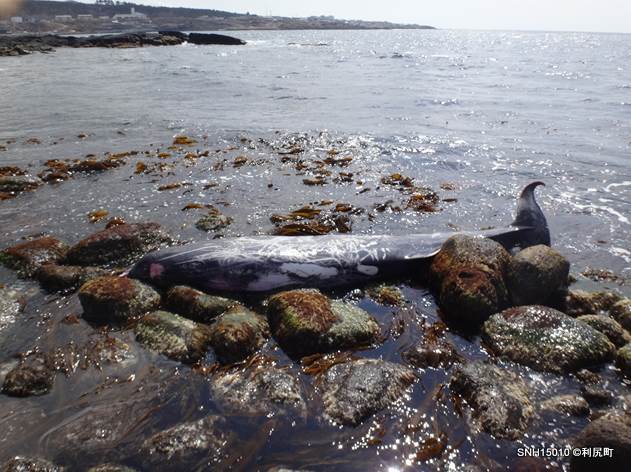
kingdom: Animalia
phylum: Chordata
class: Mammalia
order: Cetacea
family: Hyperoodontidae
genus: Mesoplodon
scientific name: Mesoplodon stejnegeri
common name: Stejneger's beaked whale
